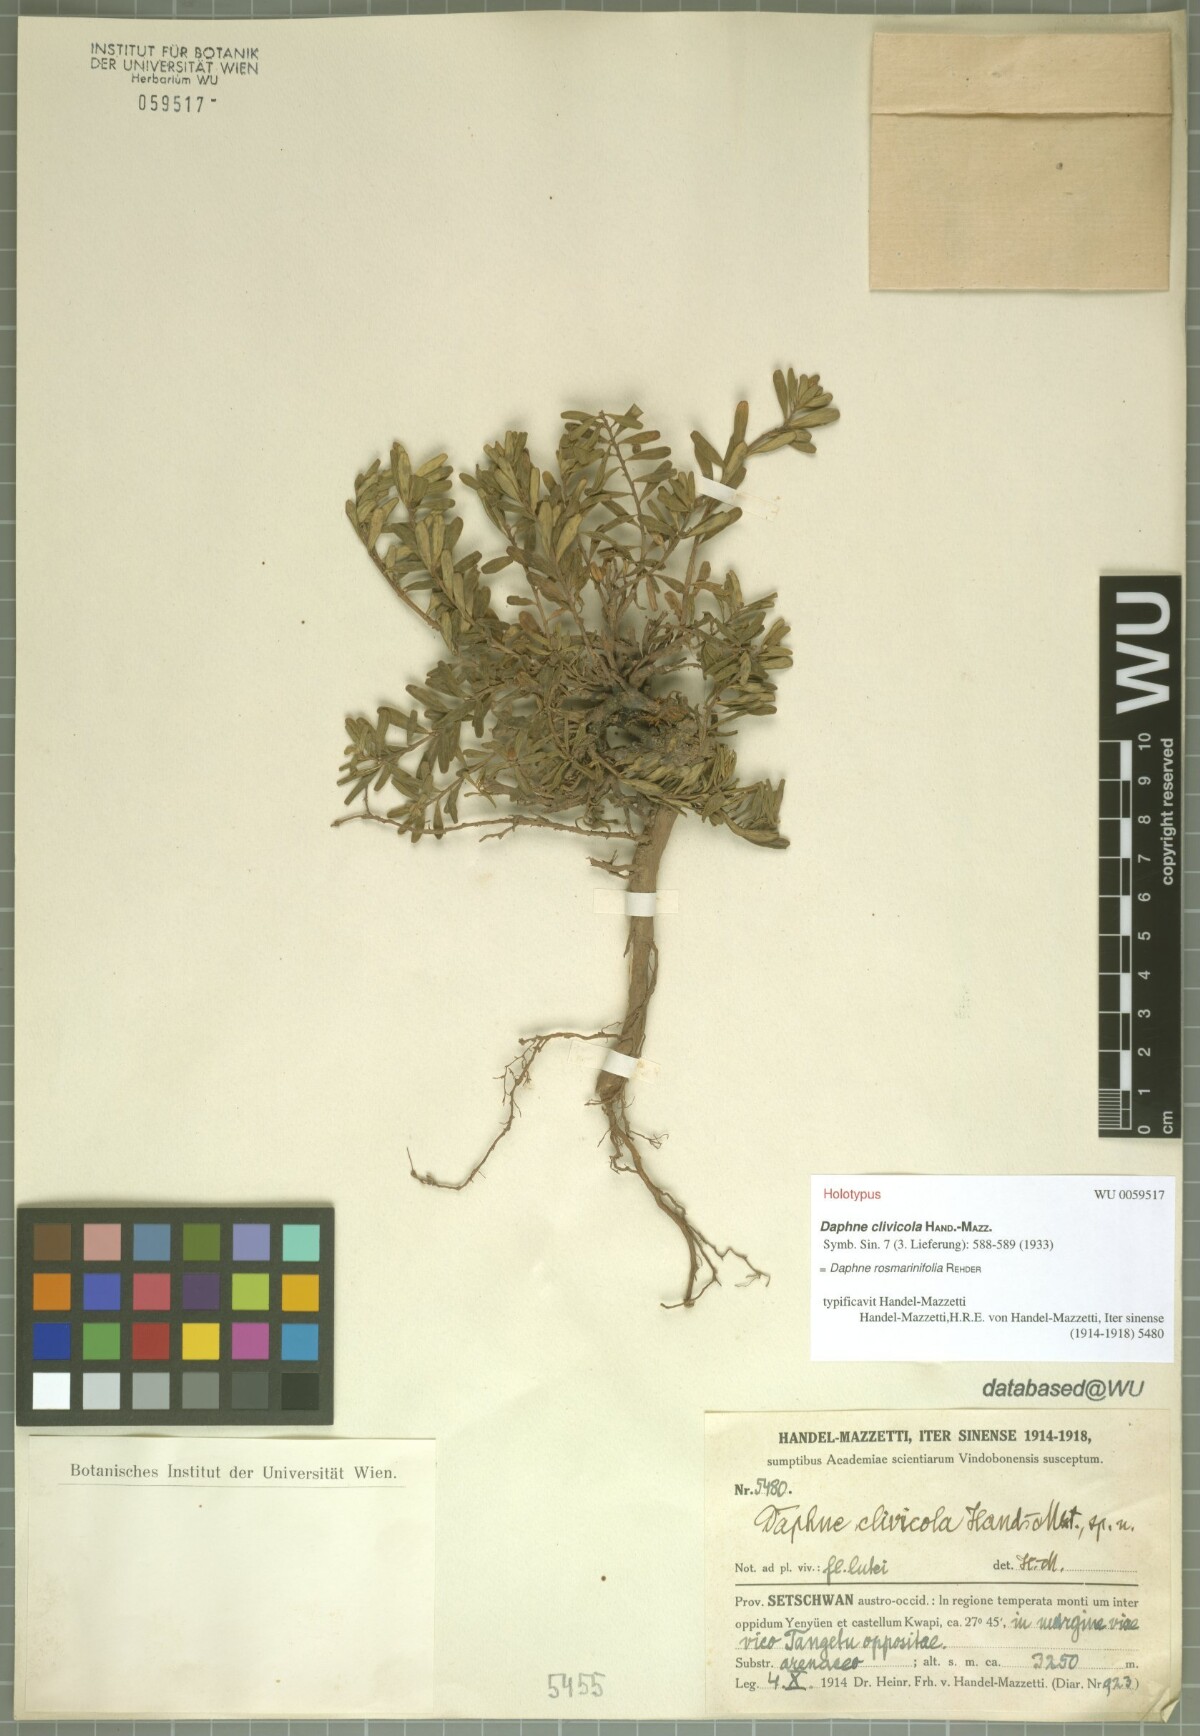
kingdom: Plantae
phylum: Tracheophyta
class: Magnoliopsida
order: Malvales
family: Thymelaeaceae
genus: Wikstroemia
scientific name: Wikstroemia rosmarinifolia
